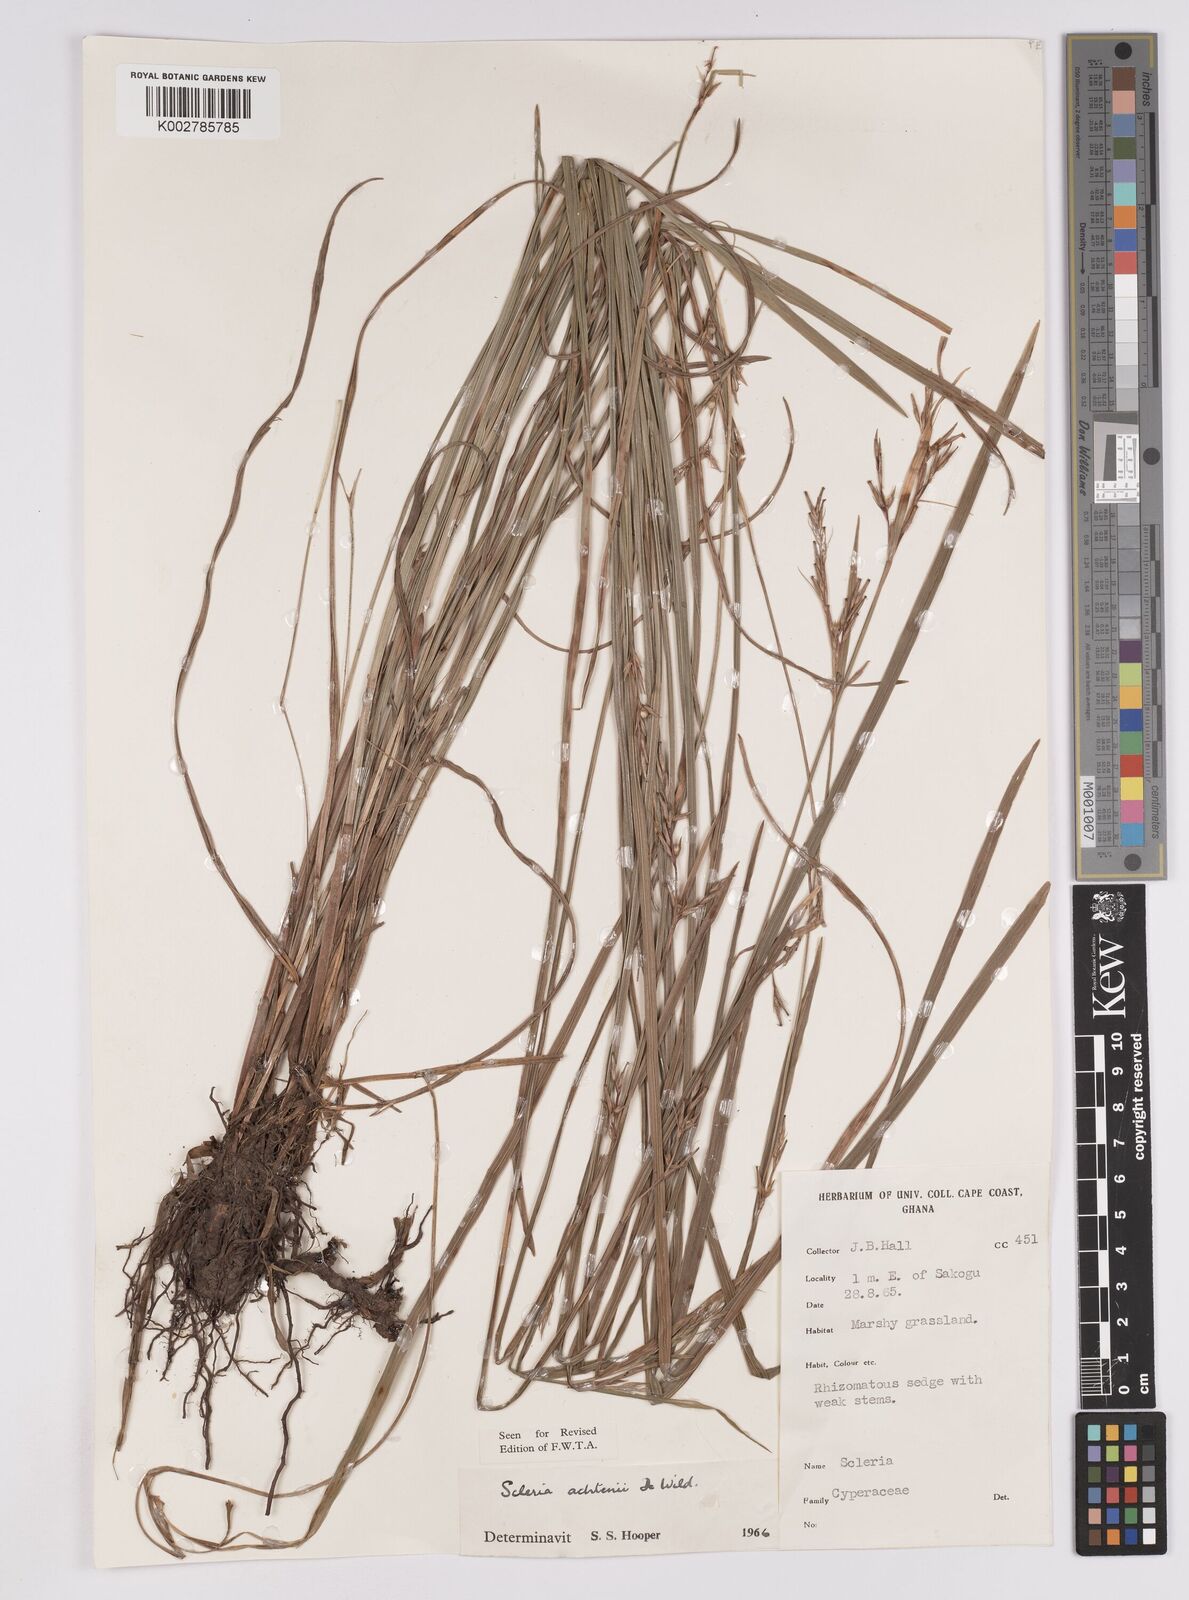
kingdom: Plantae
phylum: Tracheophyta
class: Liliopsida
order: Poales
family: Cyperaceae
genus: Scleria
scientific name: Scleria achtenii
